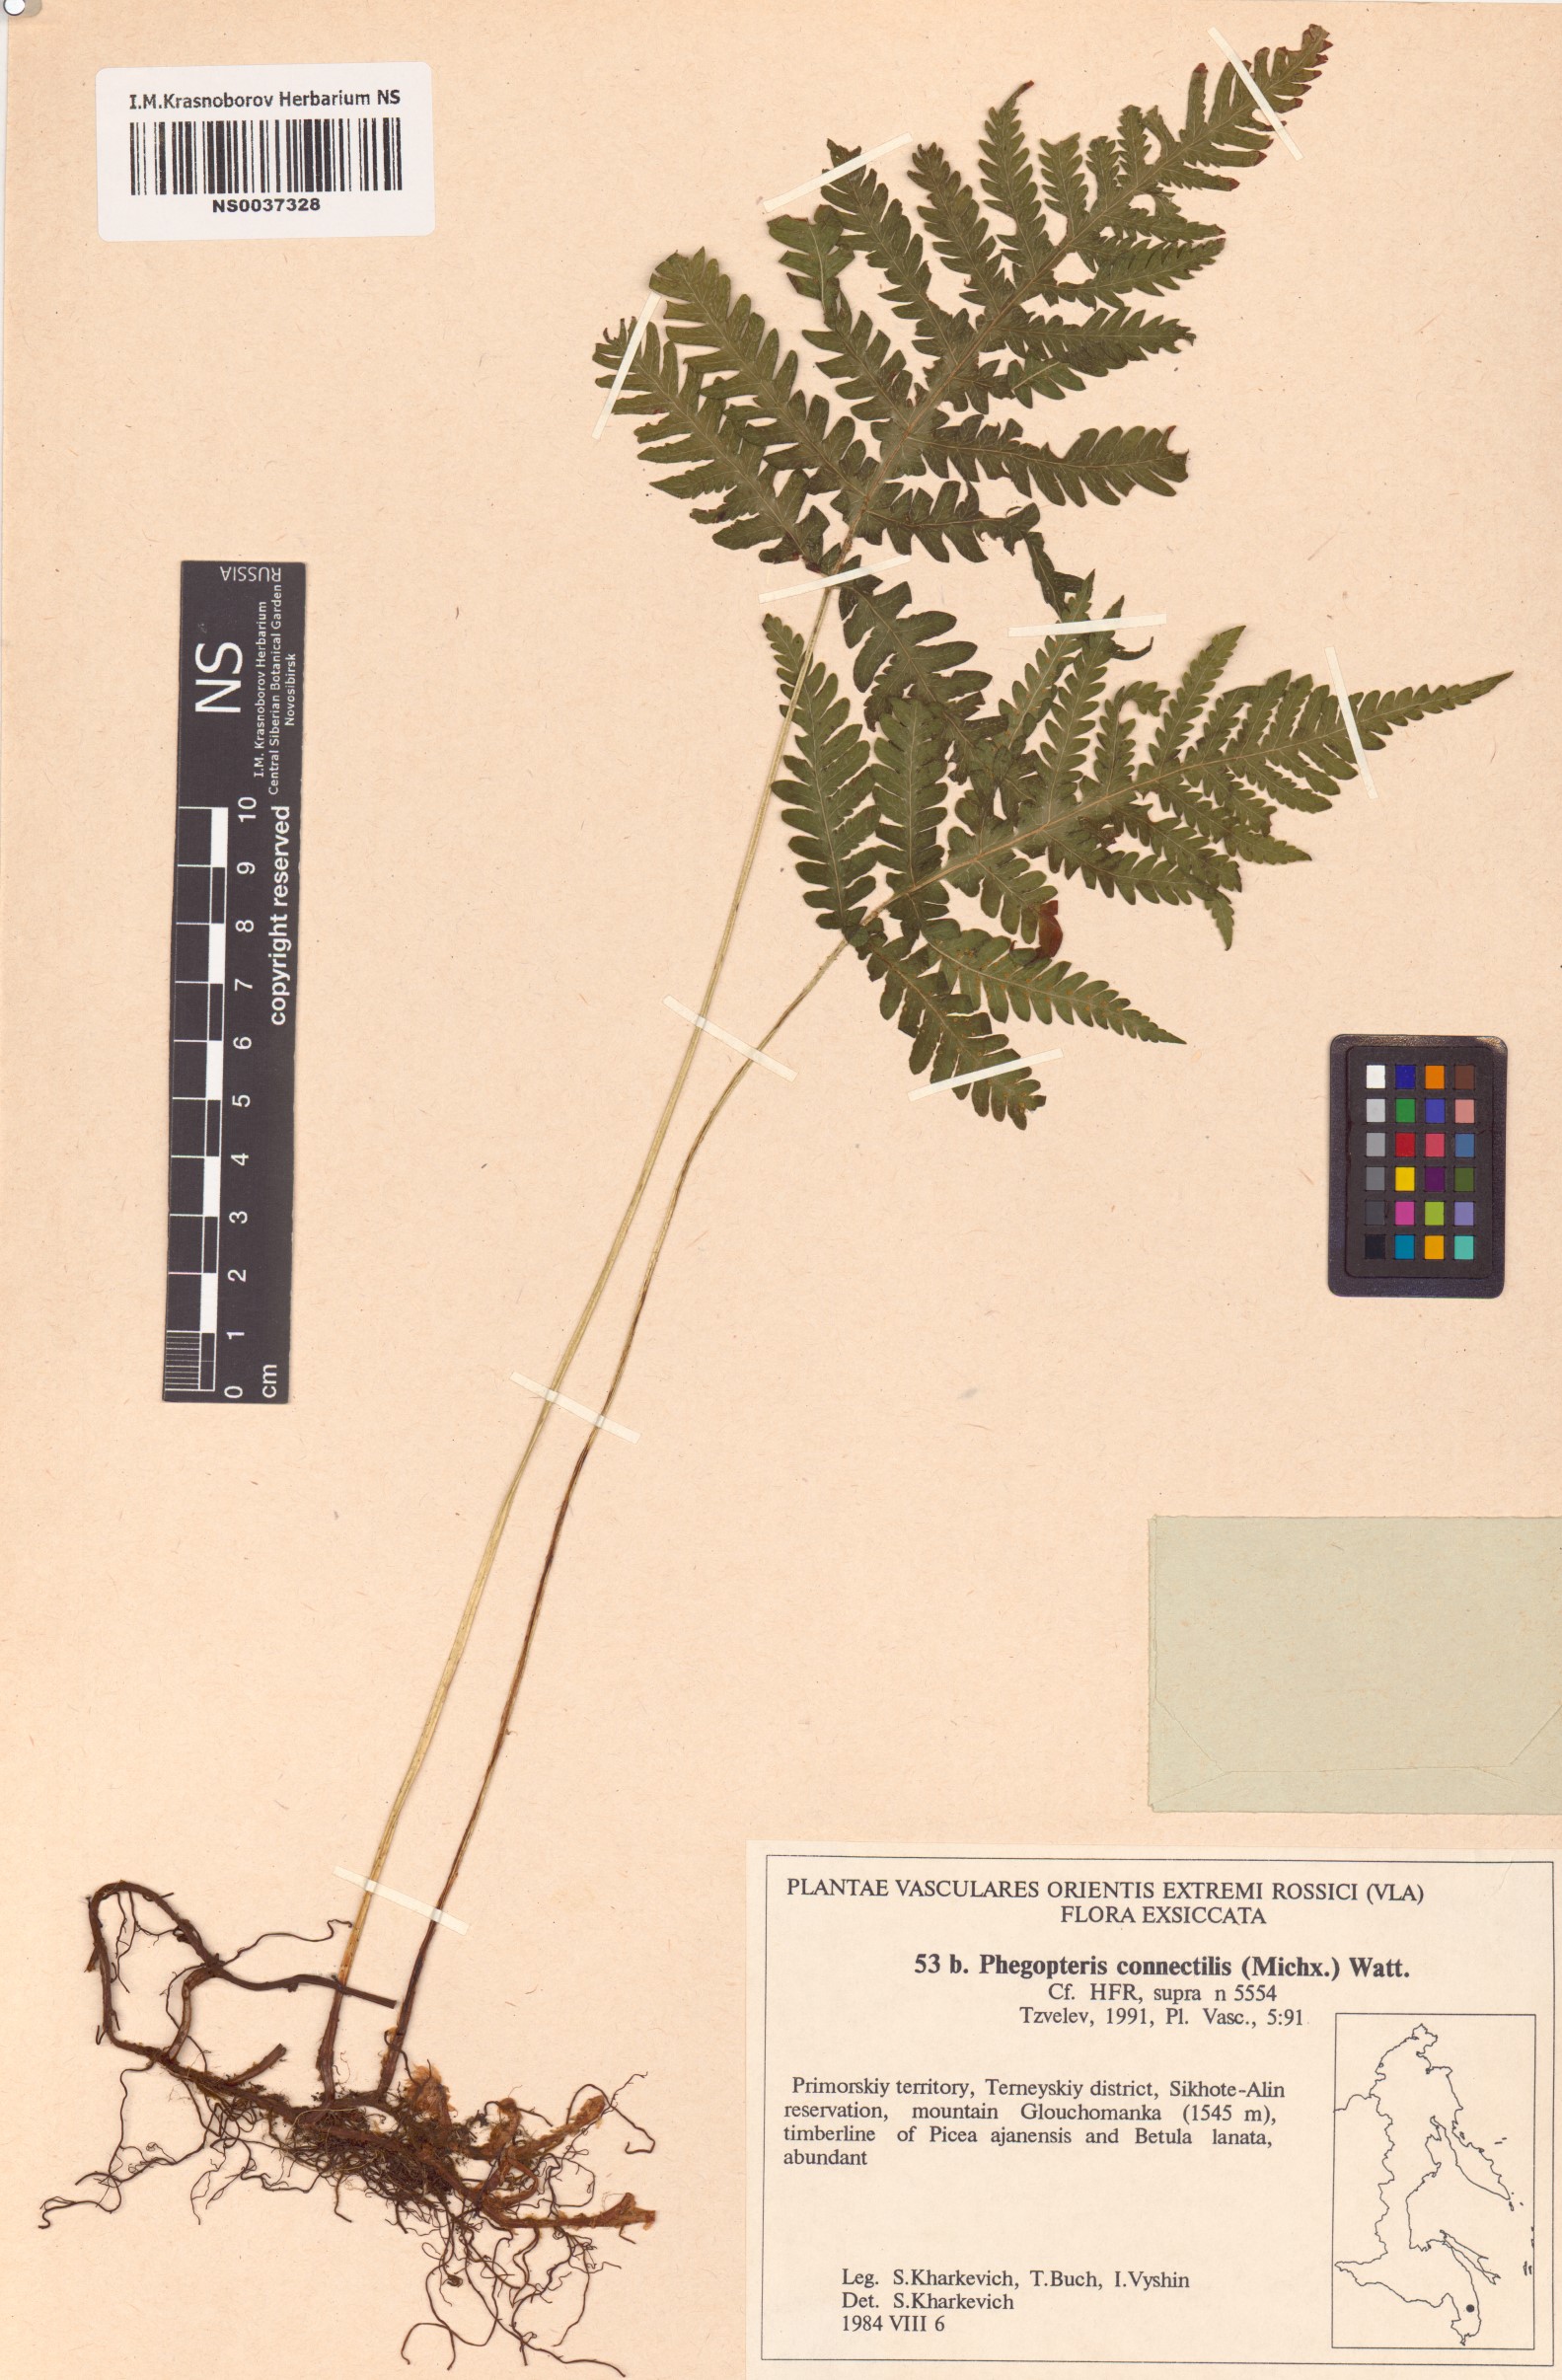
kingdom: Plantae
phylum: Tracheophyta
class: Polypodiopsida
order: Polypodiales
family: Thelypteridaceae
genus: Phegopteris
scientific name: Phegopteris connectilis
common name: Beech fern
